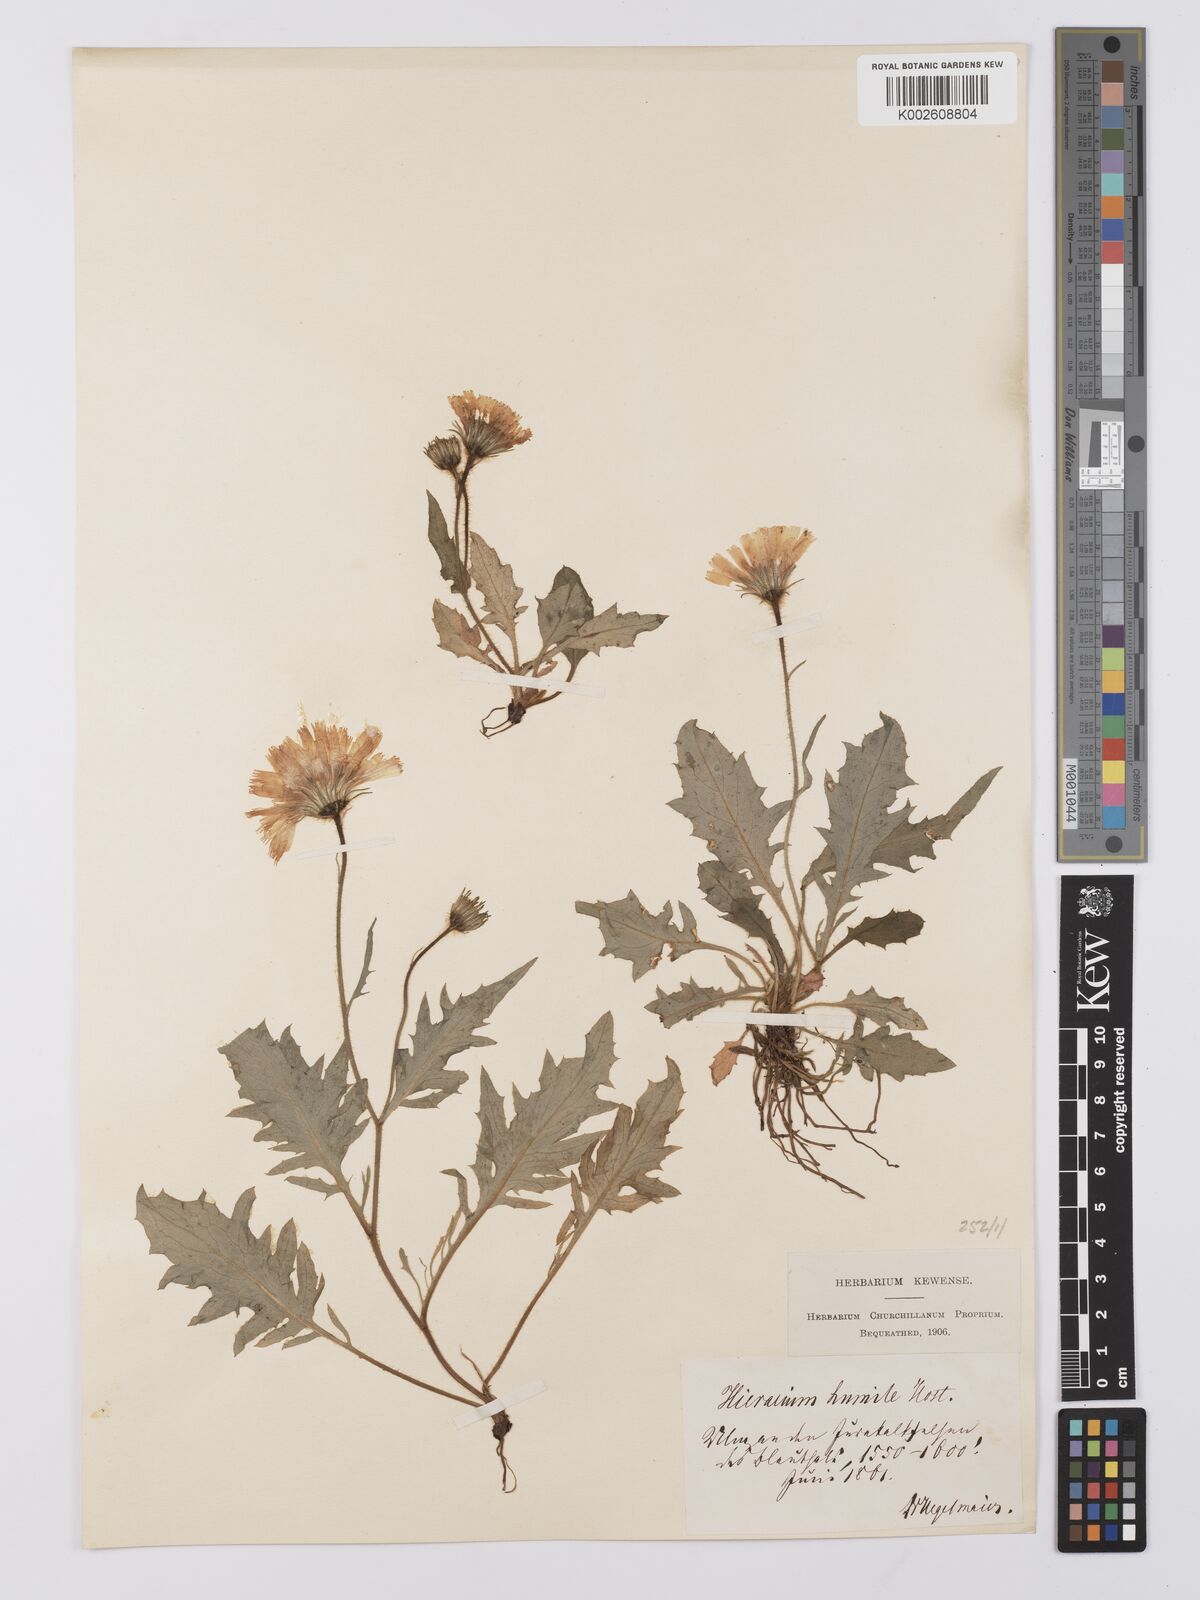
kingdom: Plantae
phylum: Tracheophyta
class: Magnoliopsida
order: Asterales
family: Asteraceae
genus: Hieracium
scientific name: Hieracium humile
